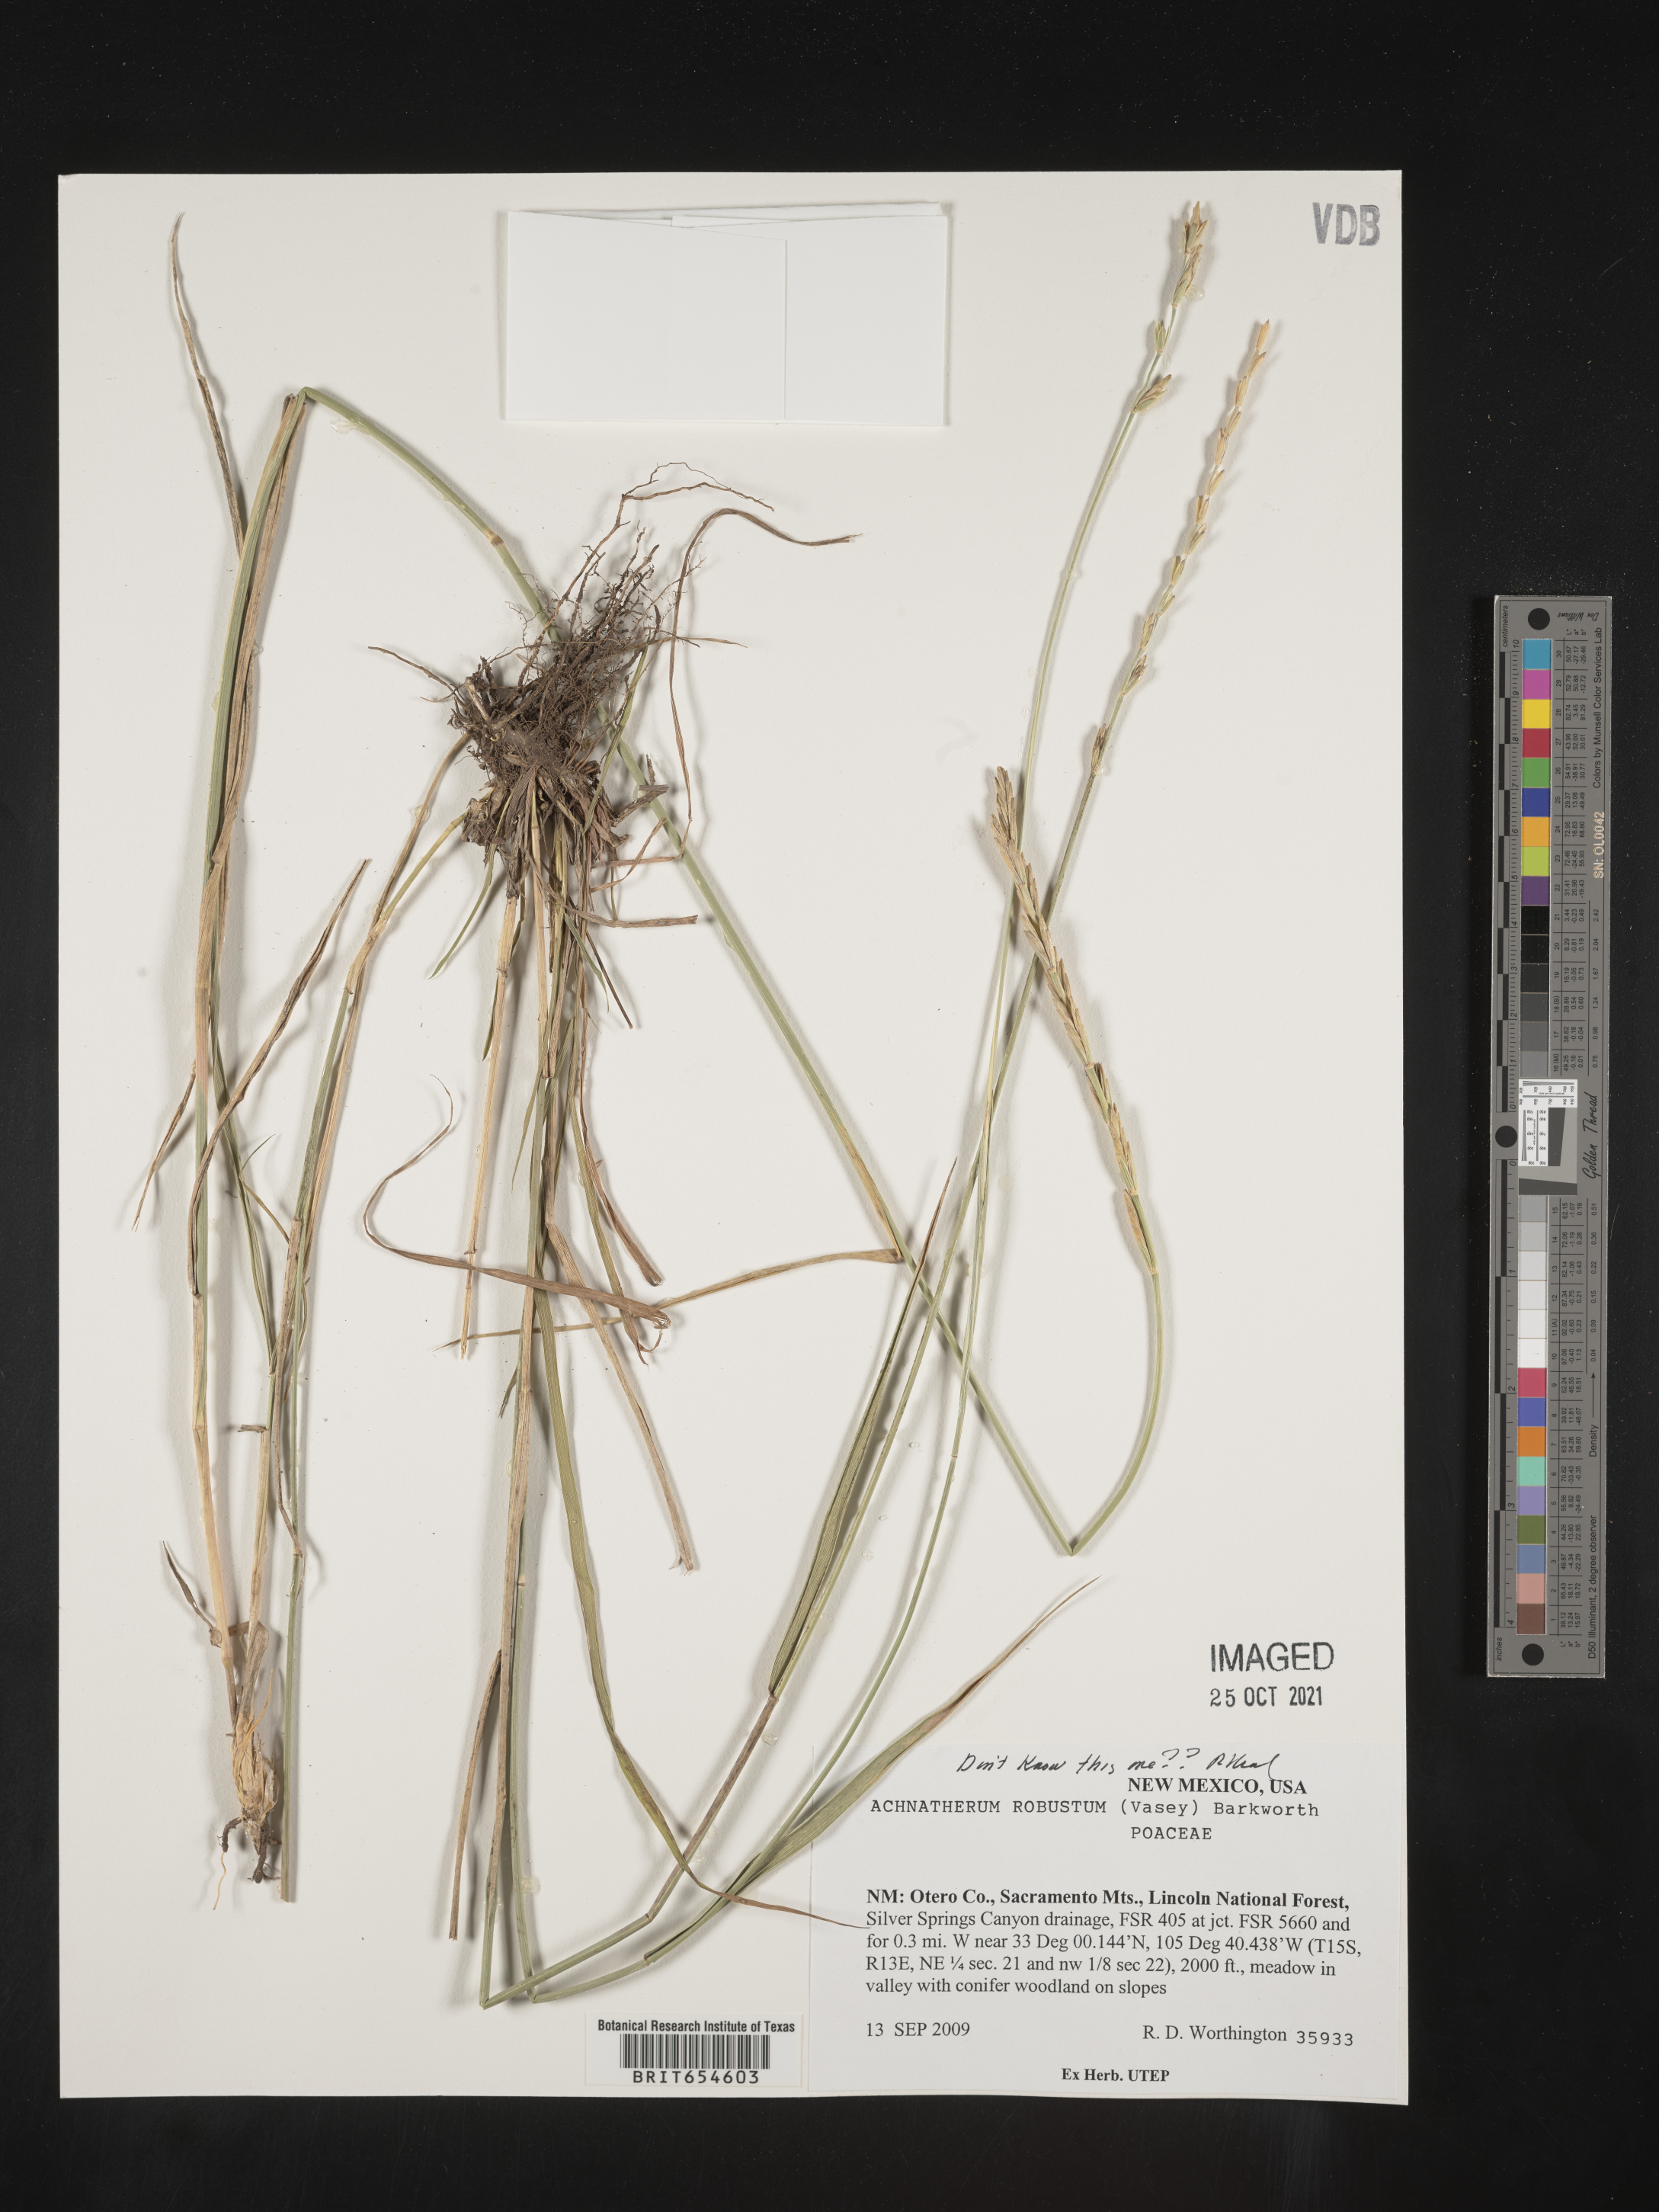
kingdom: Plantae
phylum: Tracheophyta
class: Liliopsida
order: Poales
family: Poaceae
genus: Achnatherum
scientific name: Achnatherum
